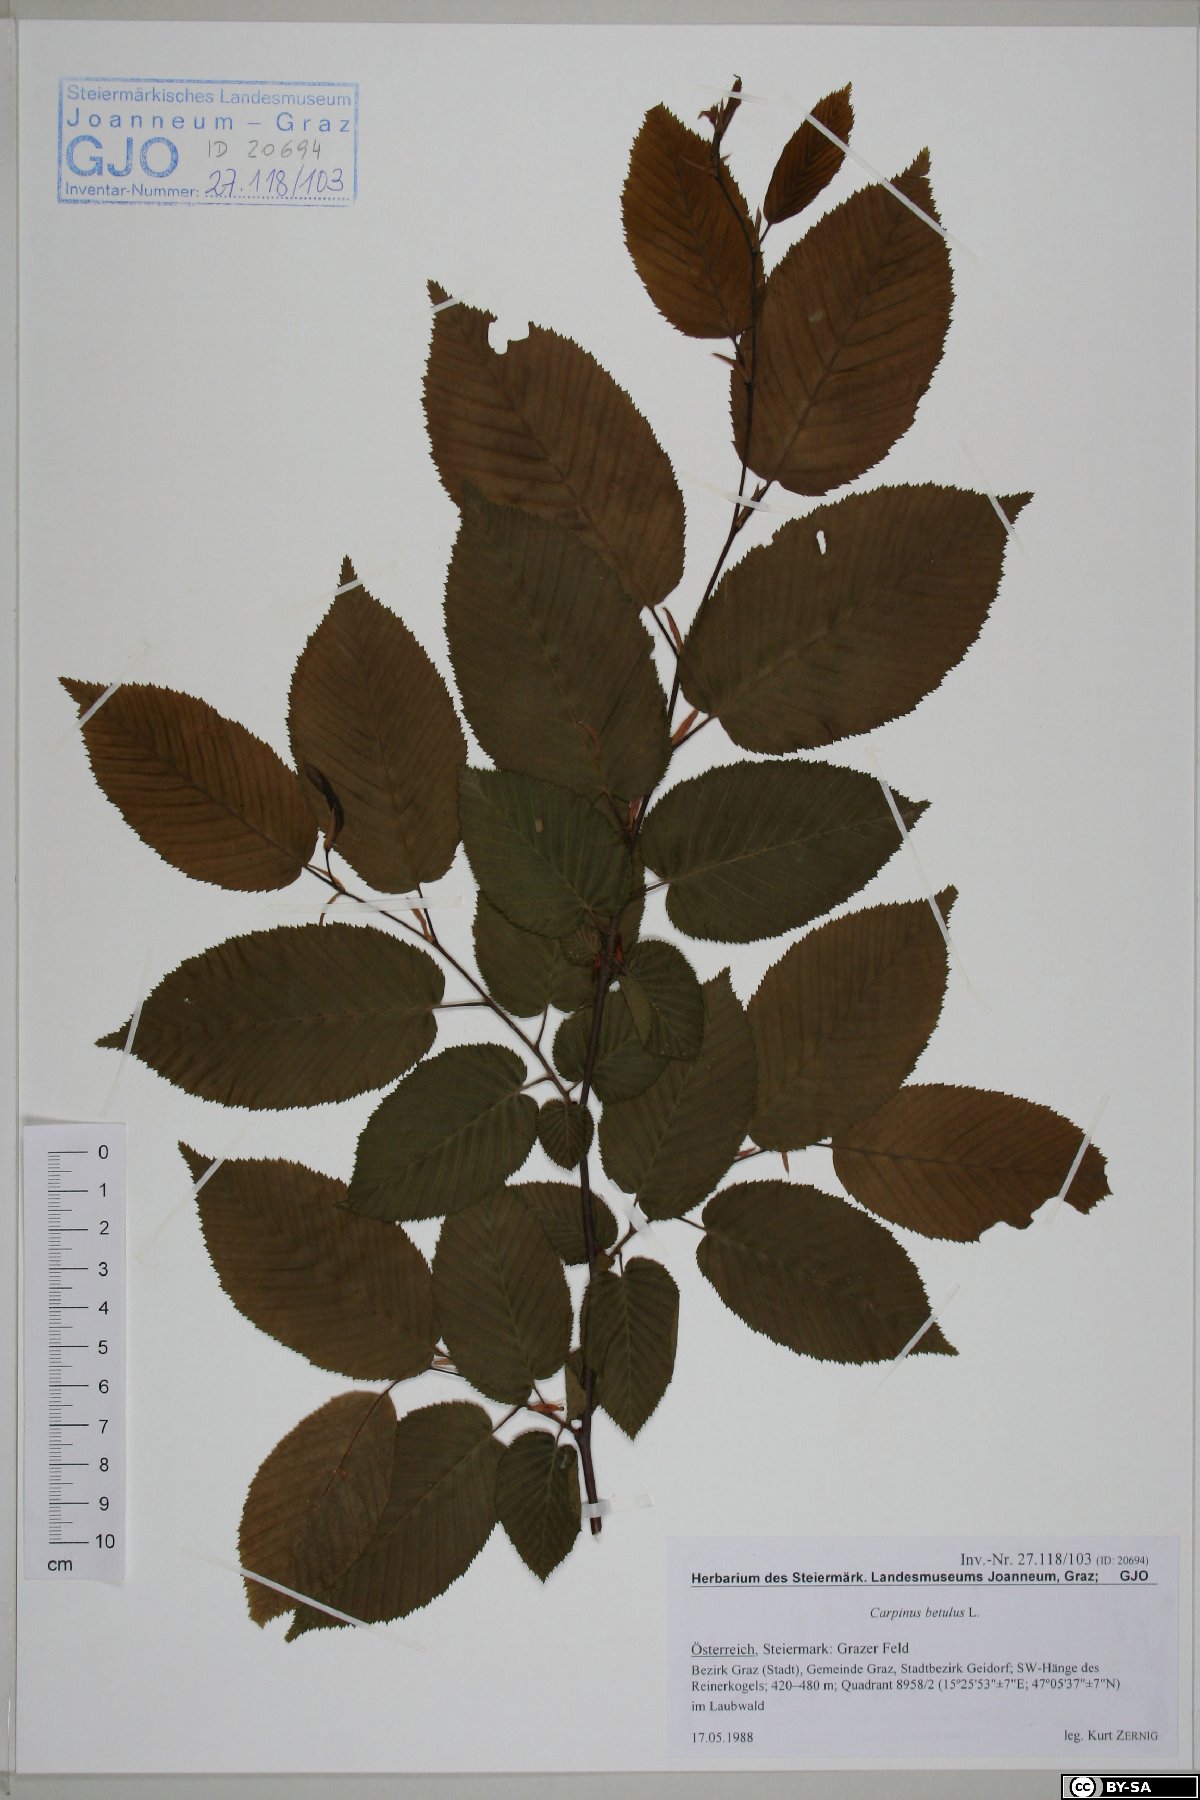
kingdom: Plantae
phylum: Tracheophyta
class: Magnoliopsida
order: Fagales
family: Betulaceae
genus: Carpinus
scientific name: Carpinus betulus
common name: Hornbeam
